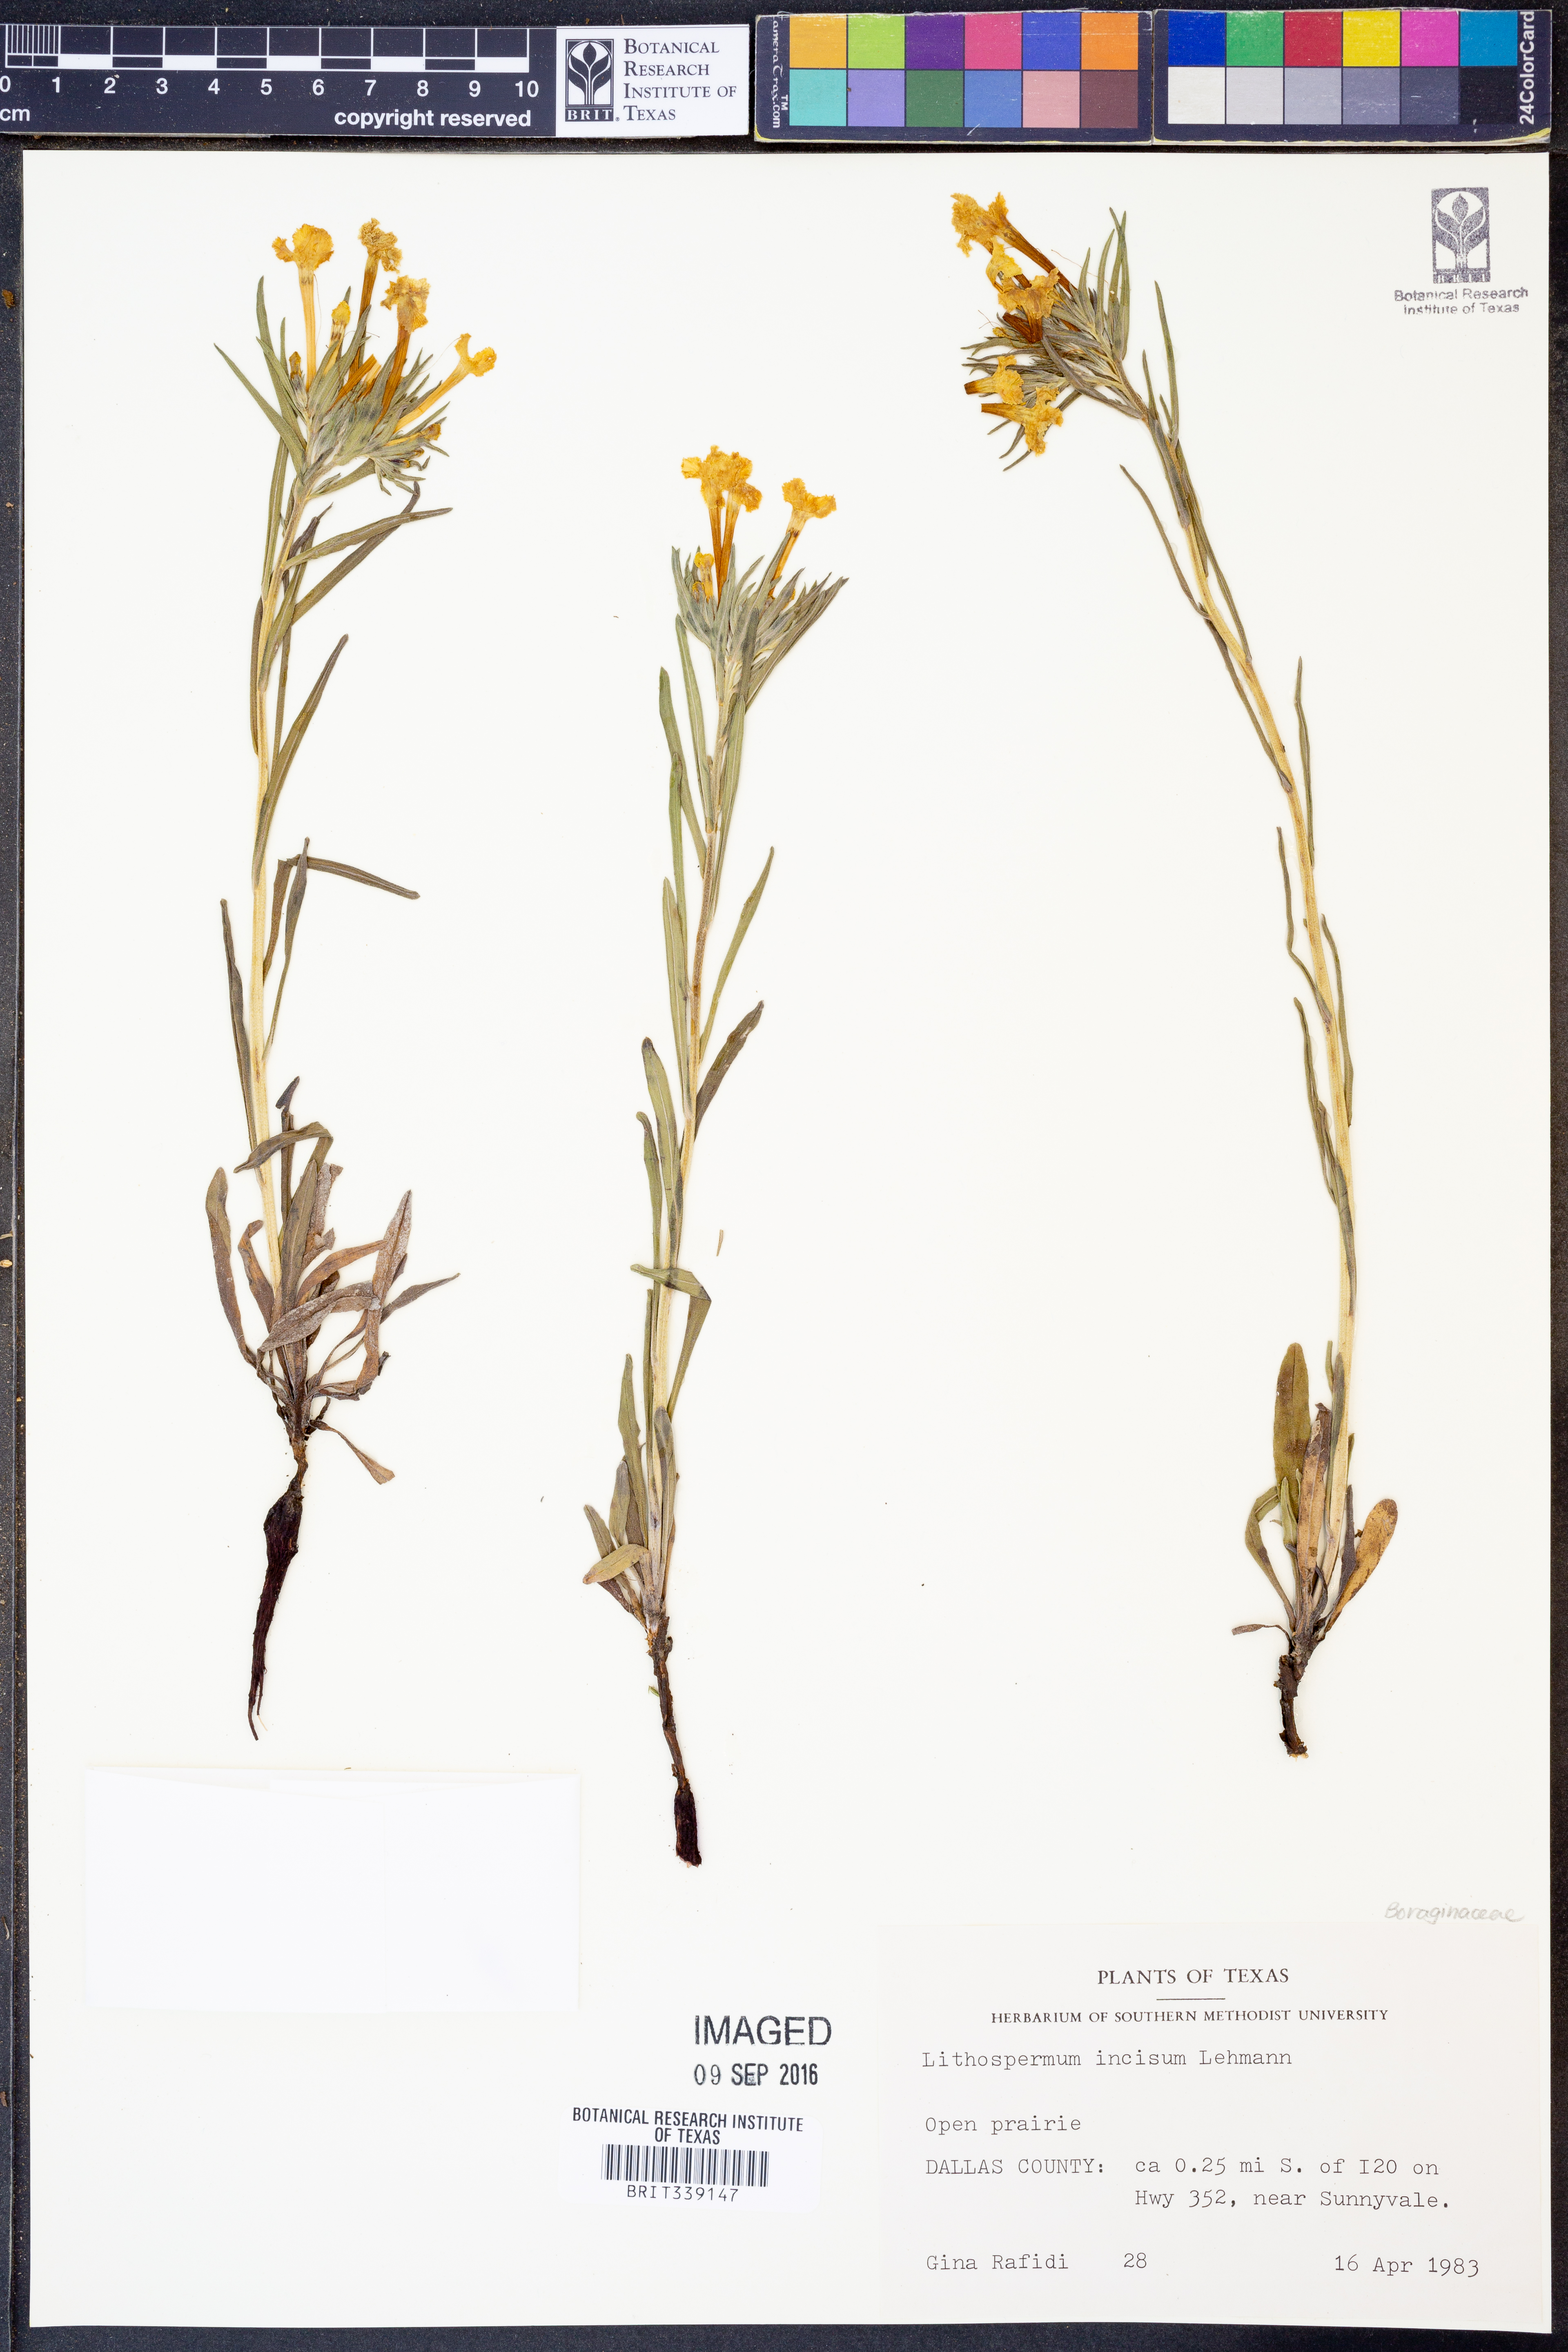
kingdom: Plantae
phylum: Tracheophyta
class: Magnoliopsida
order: Boraginales
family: Boraginaceae
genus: Lithospermum
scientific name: Lithospermum incisum
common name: Fringed gromwell
